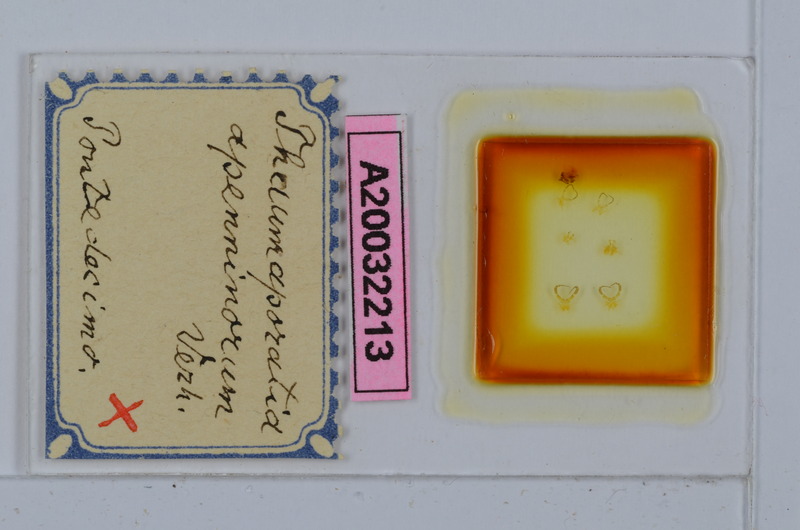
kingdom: Animalia
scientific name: Animalia
